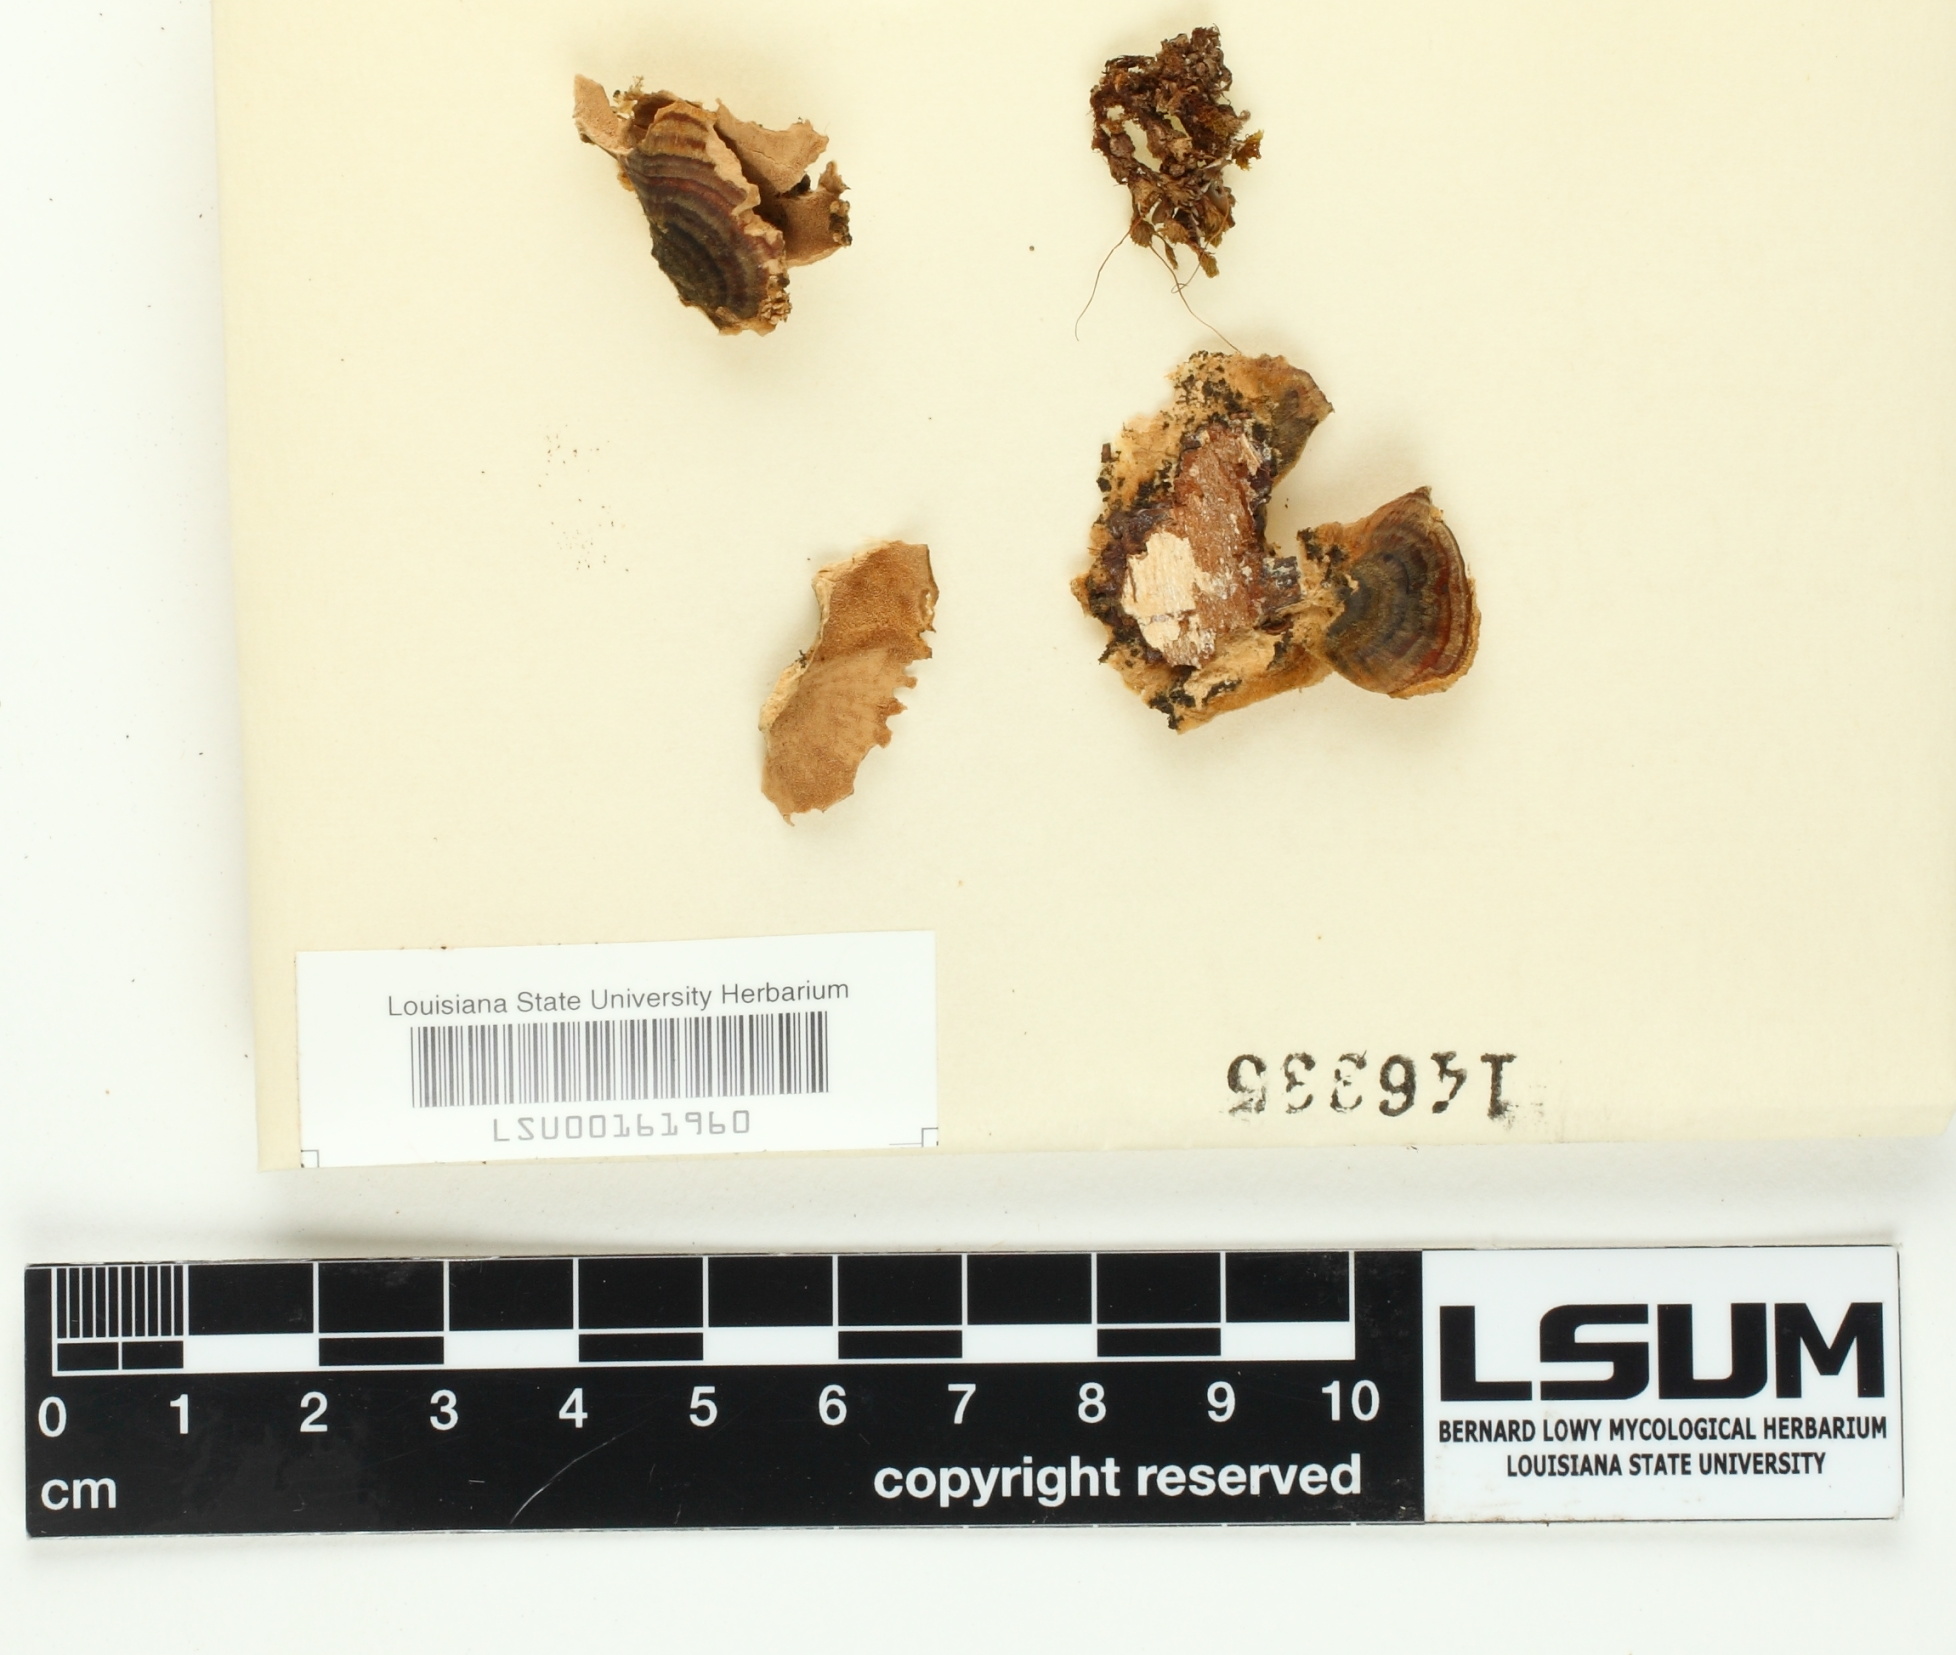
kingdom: Fungi
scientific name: Fungi
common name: Fungi
